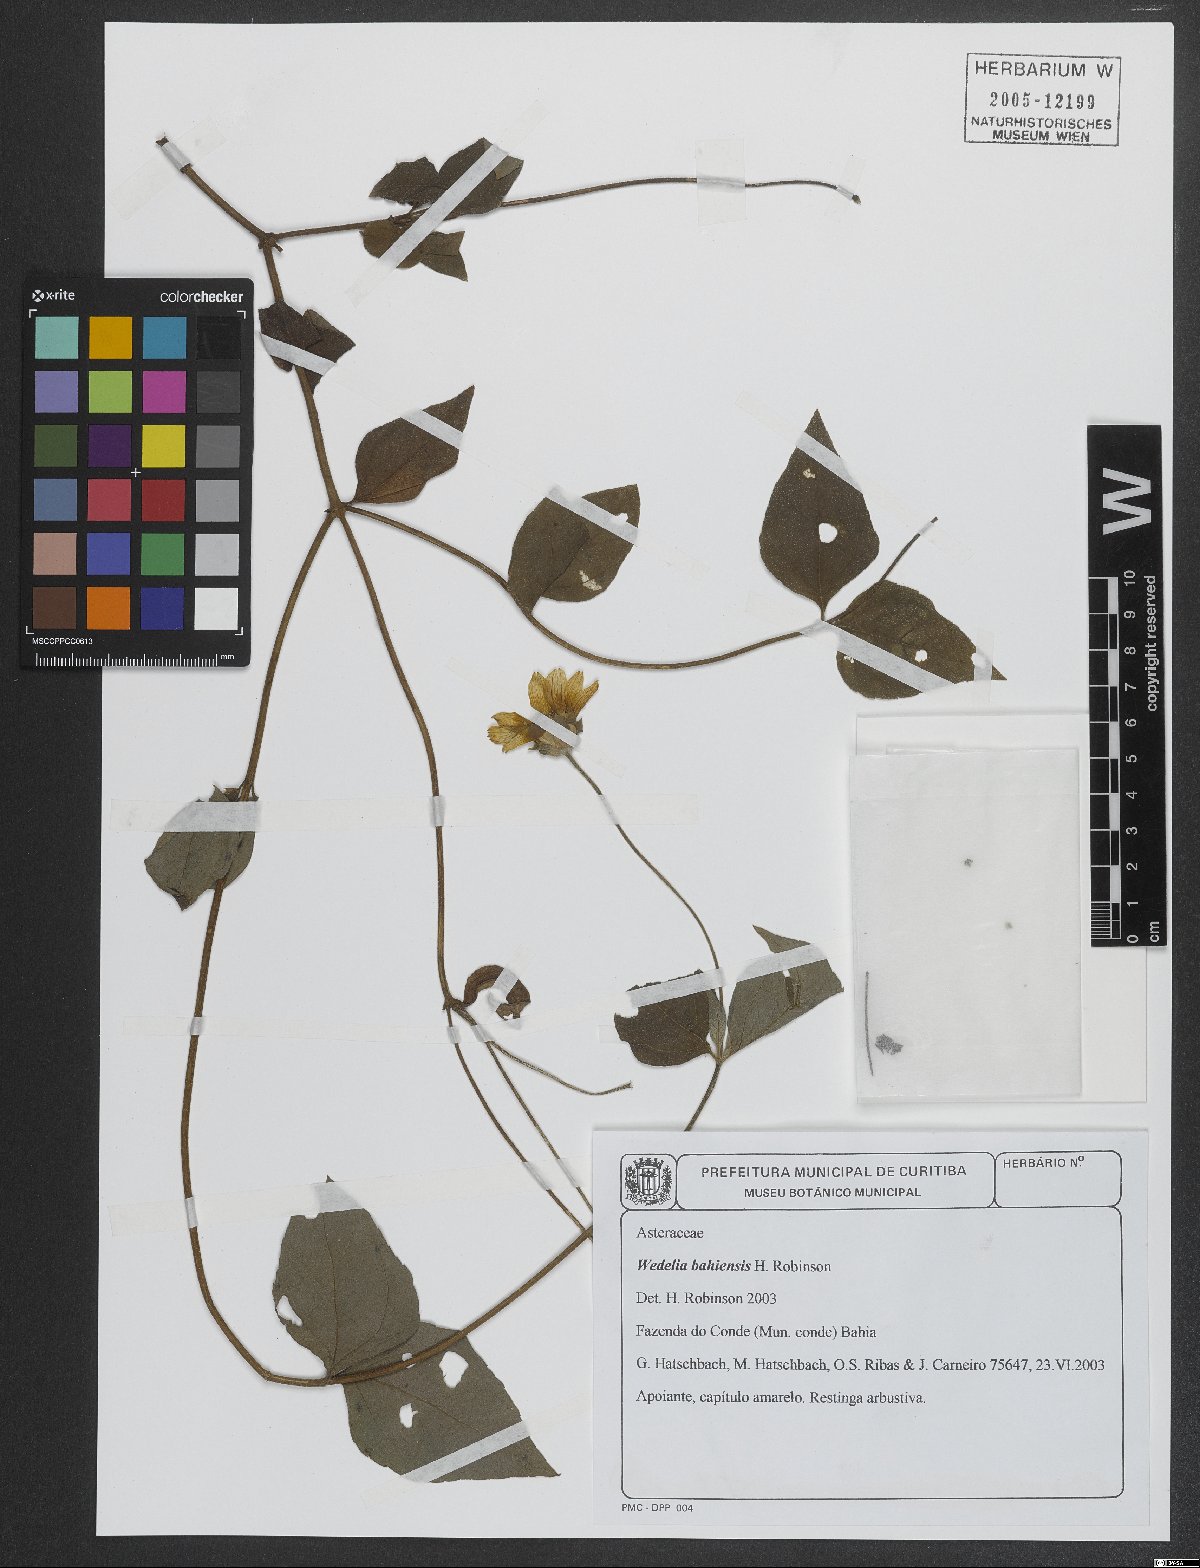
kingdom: Plantae
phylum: Tracheophyta
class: Magnoliopsida
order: Asterales
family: Asteraceae
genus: Wedelia
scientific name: Wedelia bahiensis
